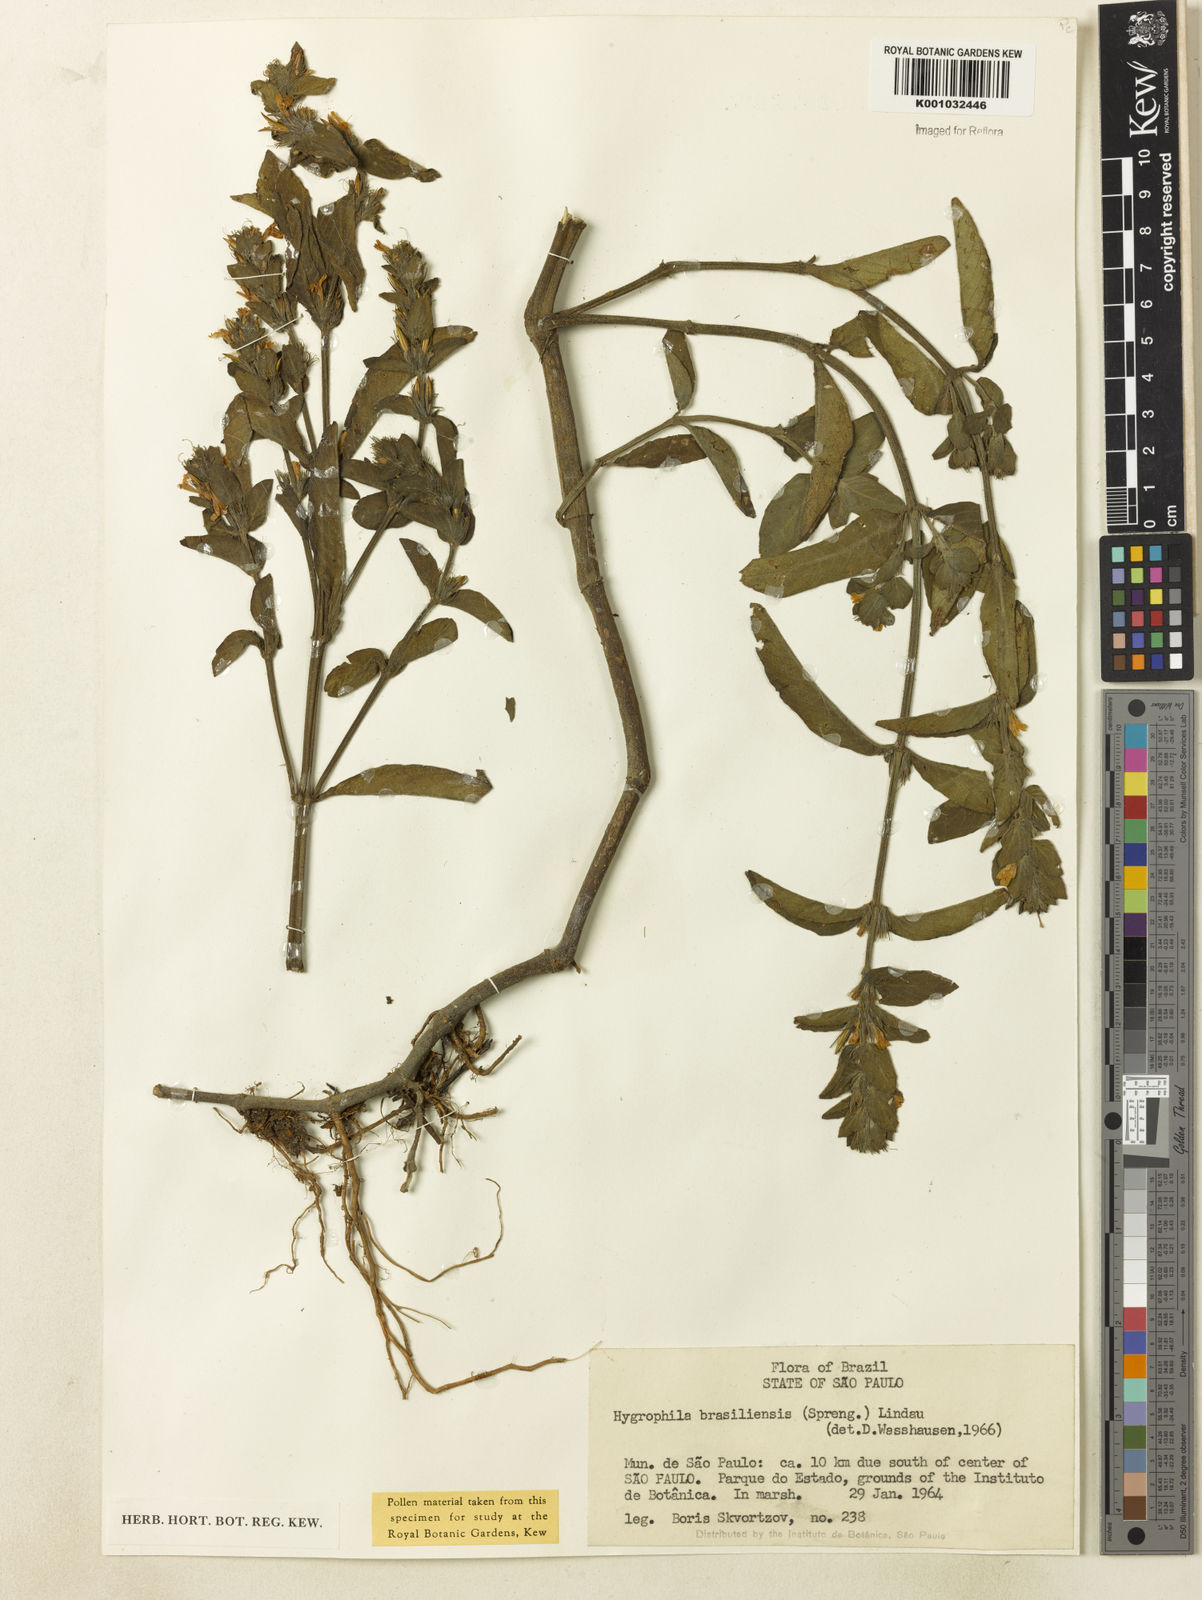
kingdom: Plantae
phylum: Tracheophyta
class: Magnoliopsida
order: Lamiales
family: Acanthaceae
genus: Hygrophila
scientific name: Hygrophila costata
